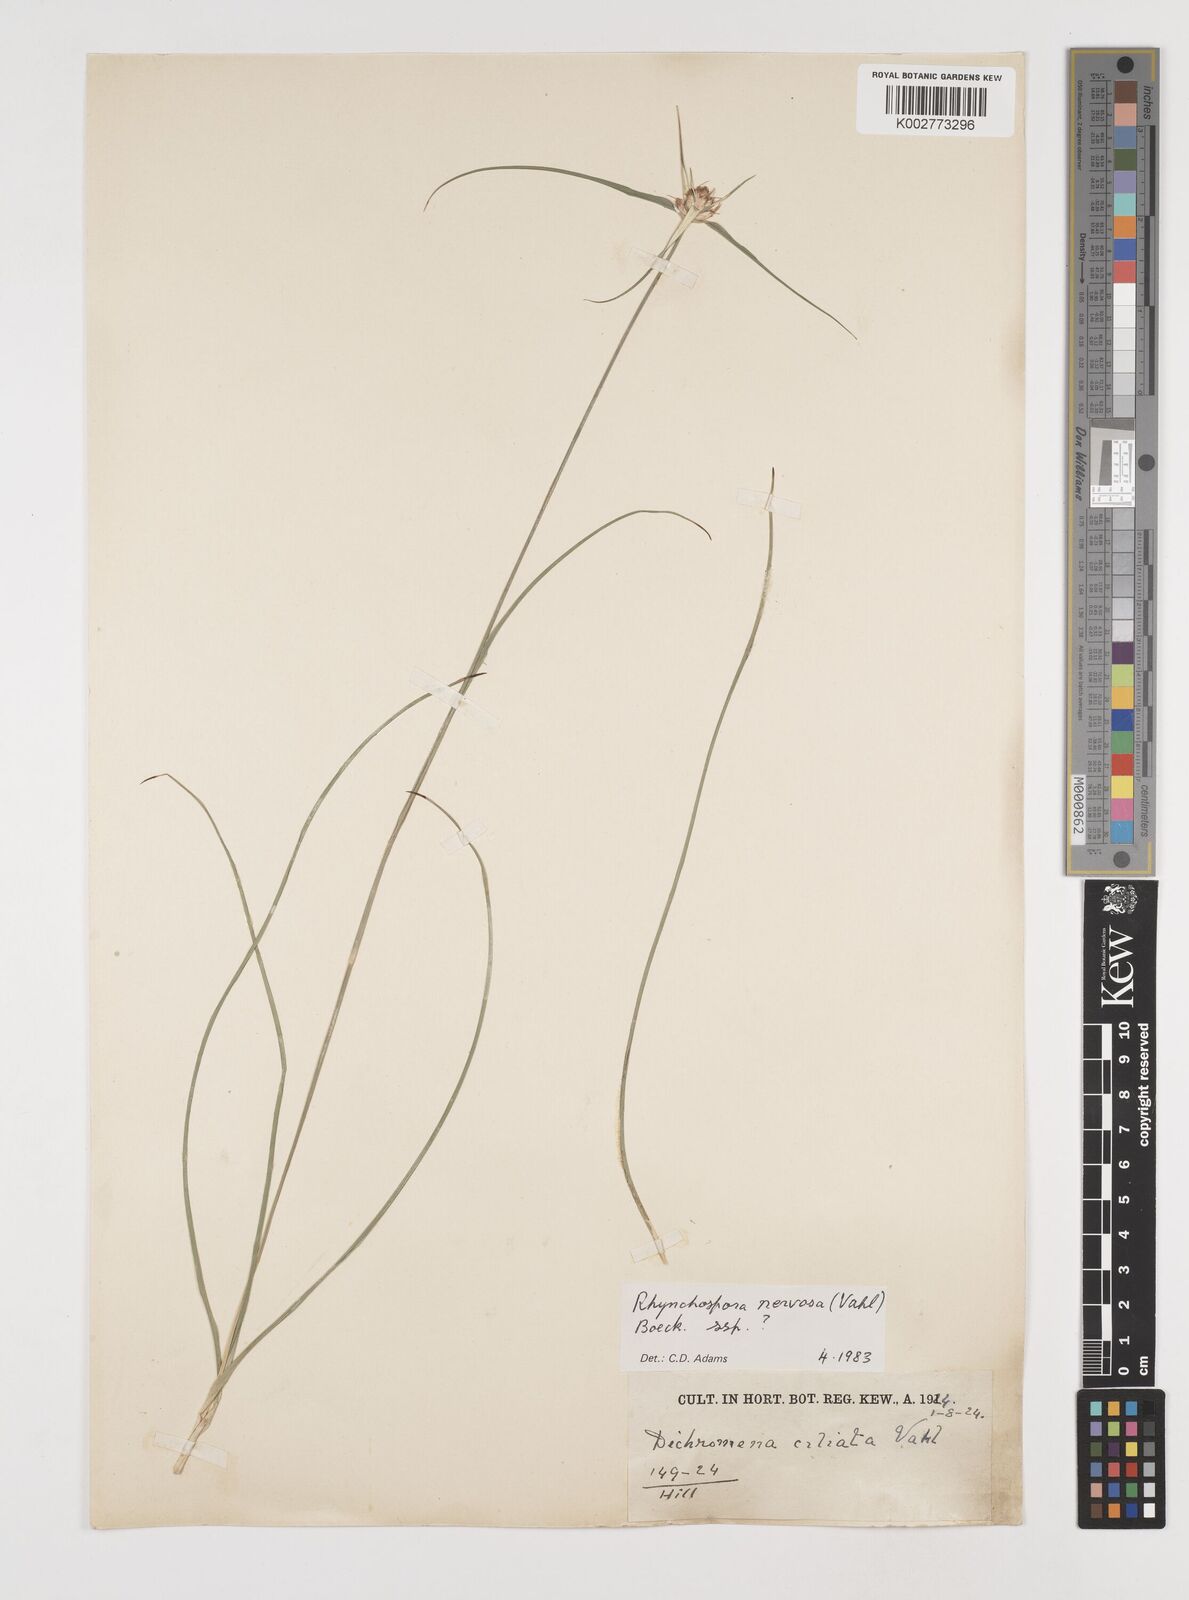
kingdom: Plantae
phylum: Tracheophyta
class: Liliopsida
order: Poales
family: Cyperaceae
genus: Rhynchospora
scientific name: Rhynchospora nervosa
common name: Star sedge
